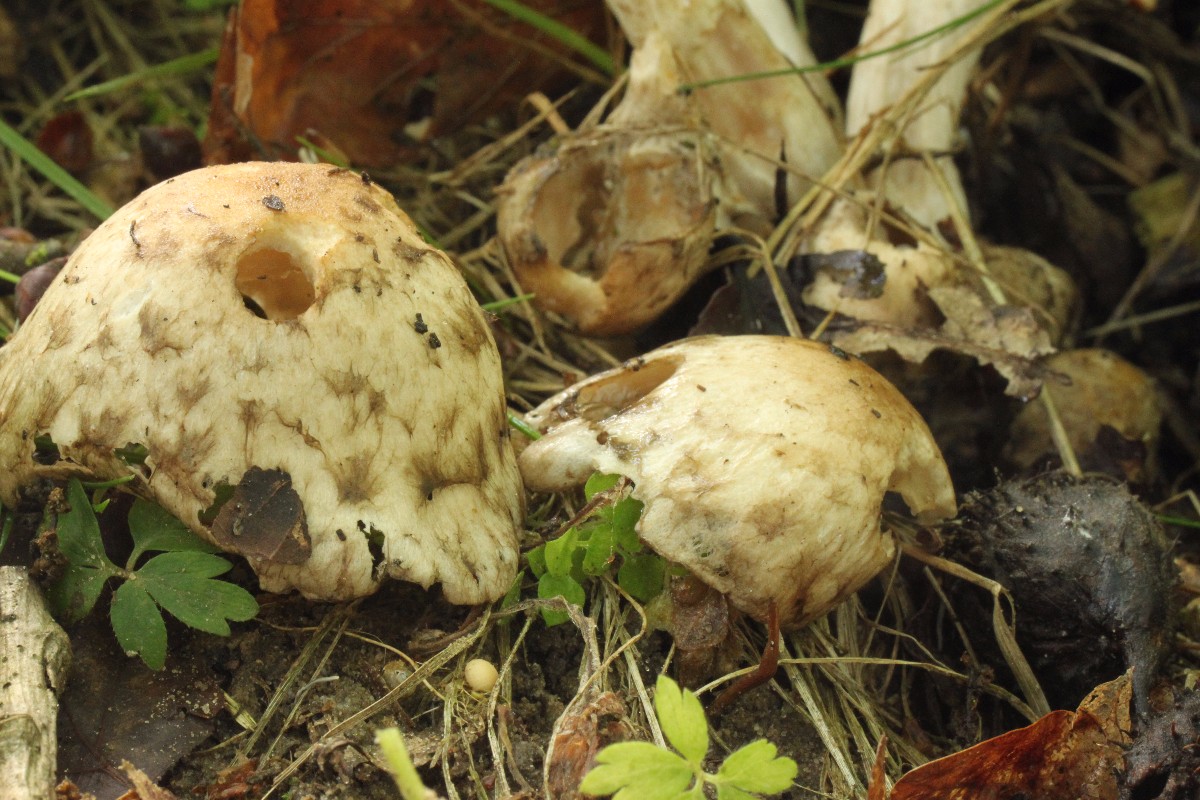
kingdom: Fungi
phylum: Basidiomycota
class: Agaricomycetes
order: Agaricales
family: Psathyrellaceae
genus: Psathyrella
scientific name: Psathyrella cotonea
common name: skællet mørkhat
